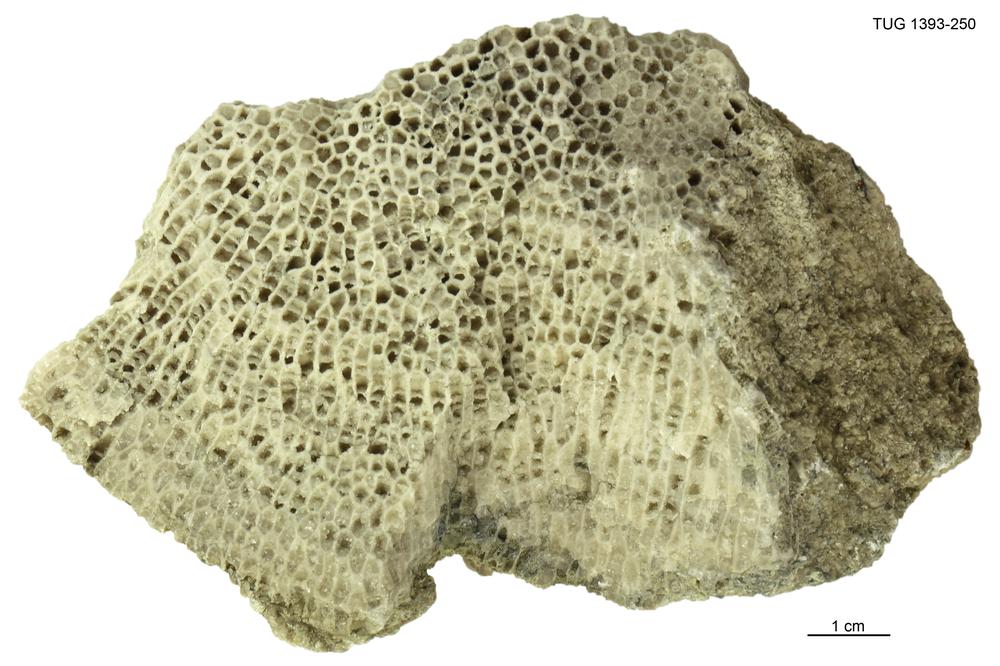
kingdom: Animalia
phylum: Cnidaria
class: Anthozoa
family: Favositidae
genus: Saffordophyllum
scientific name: Saffordophyllum
